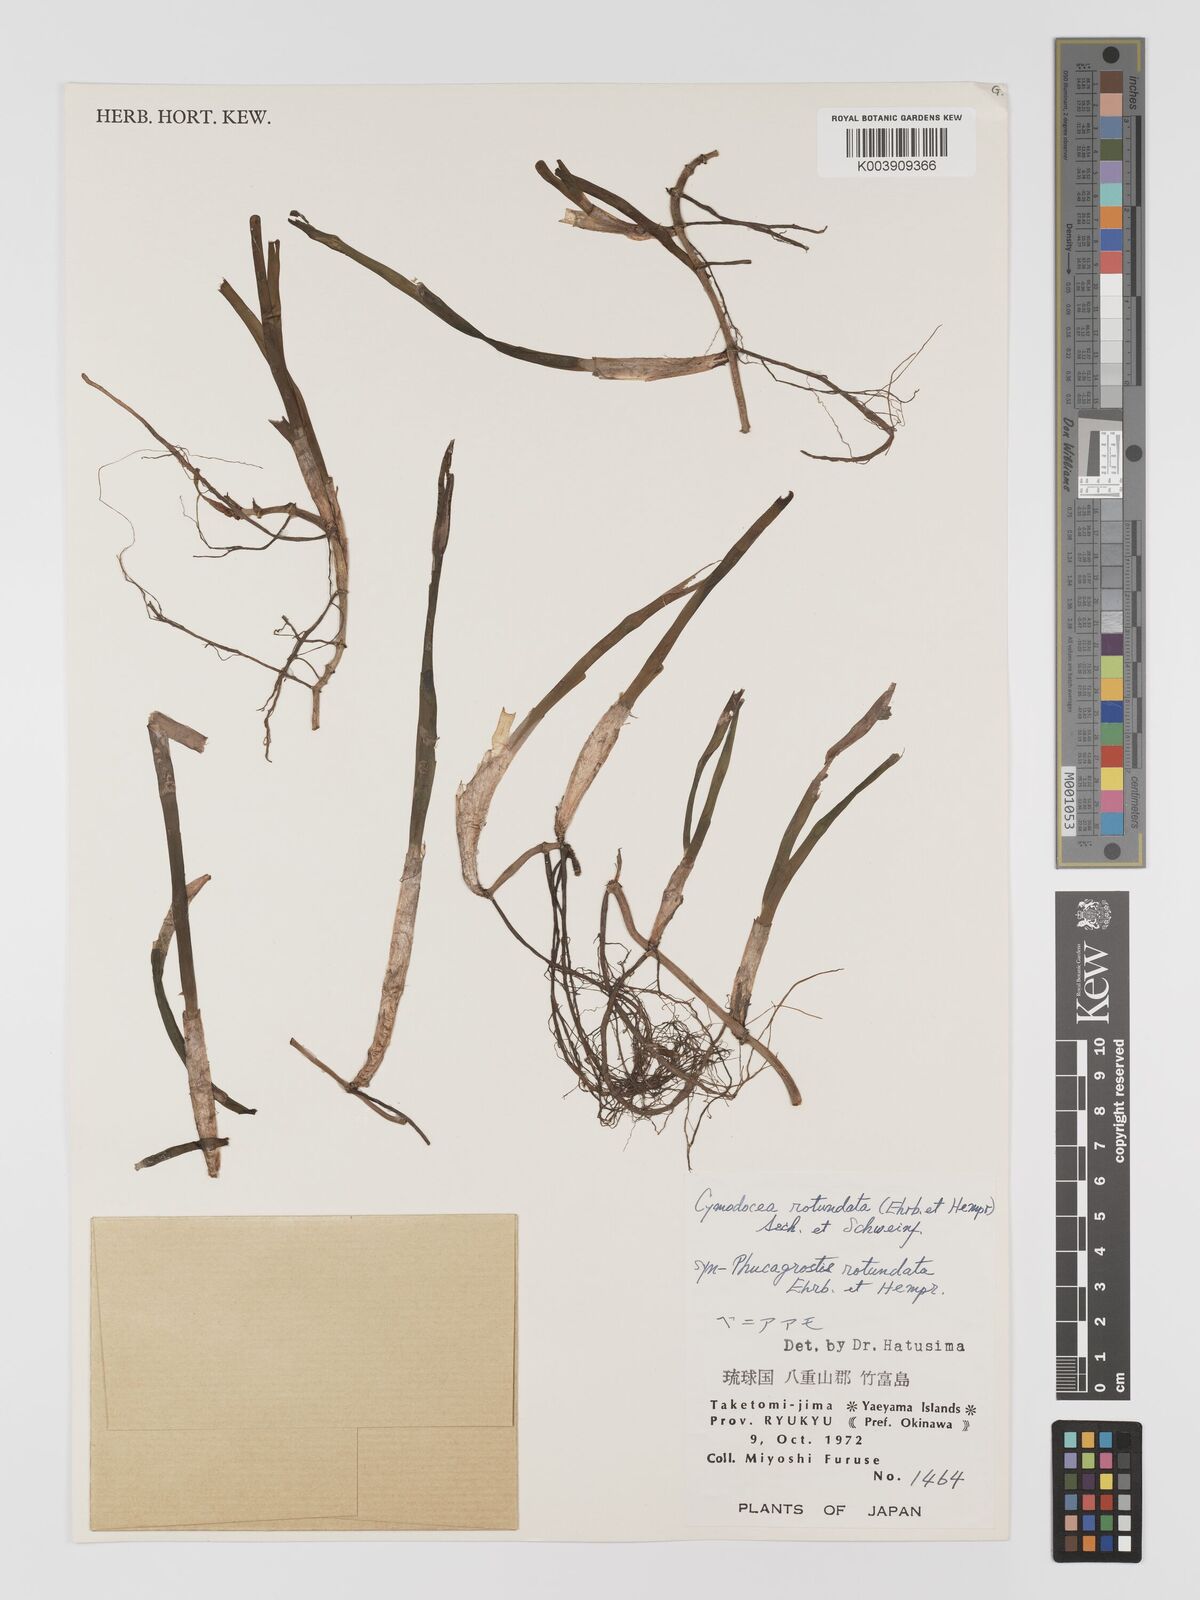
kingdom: Plantae
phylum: Tracheophyta
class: Liliopsida
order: Alismatales
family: Cymodoceaceae
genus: Cymodocea
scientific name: Cymodocea rotundata
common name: Species code: cr
